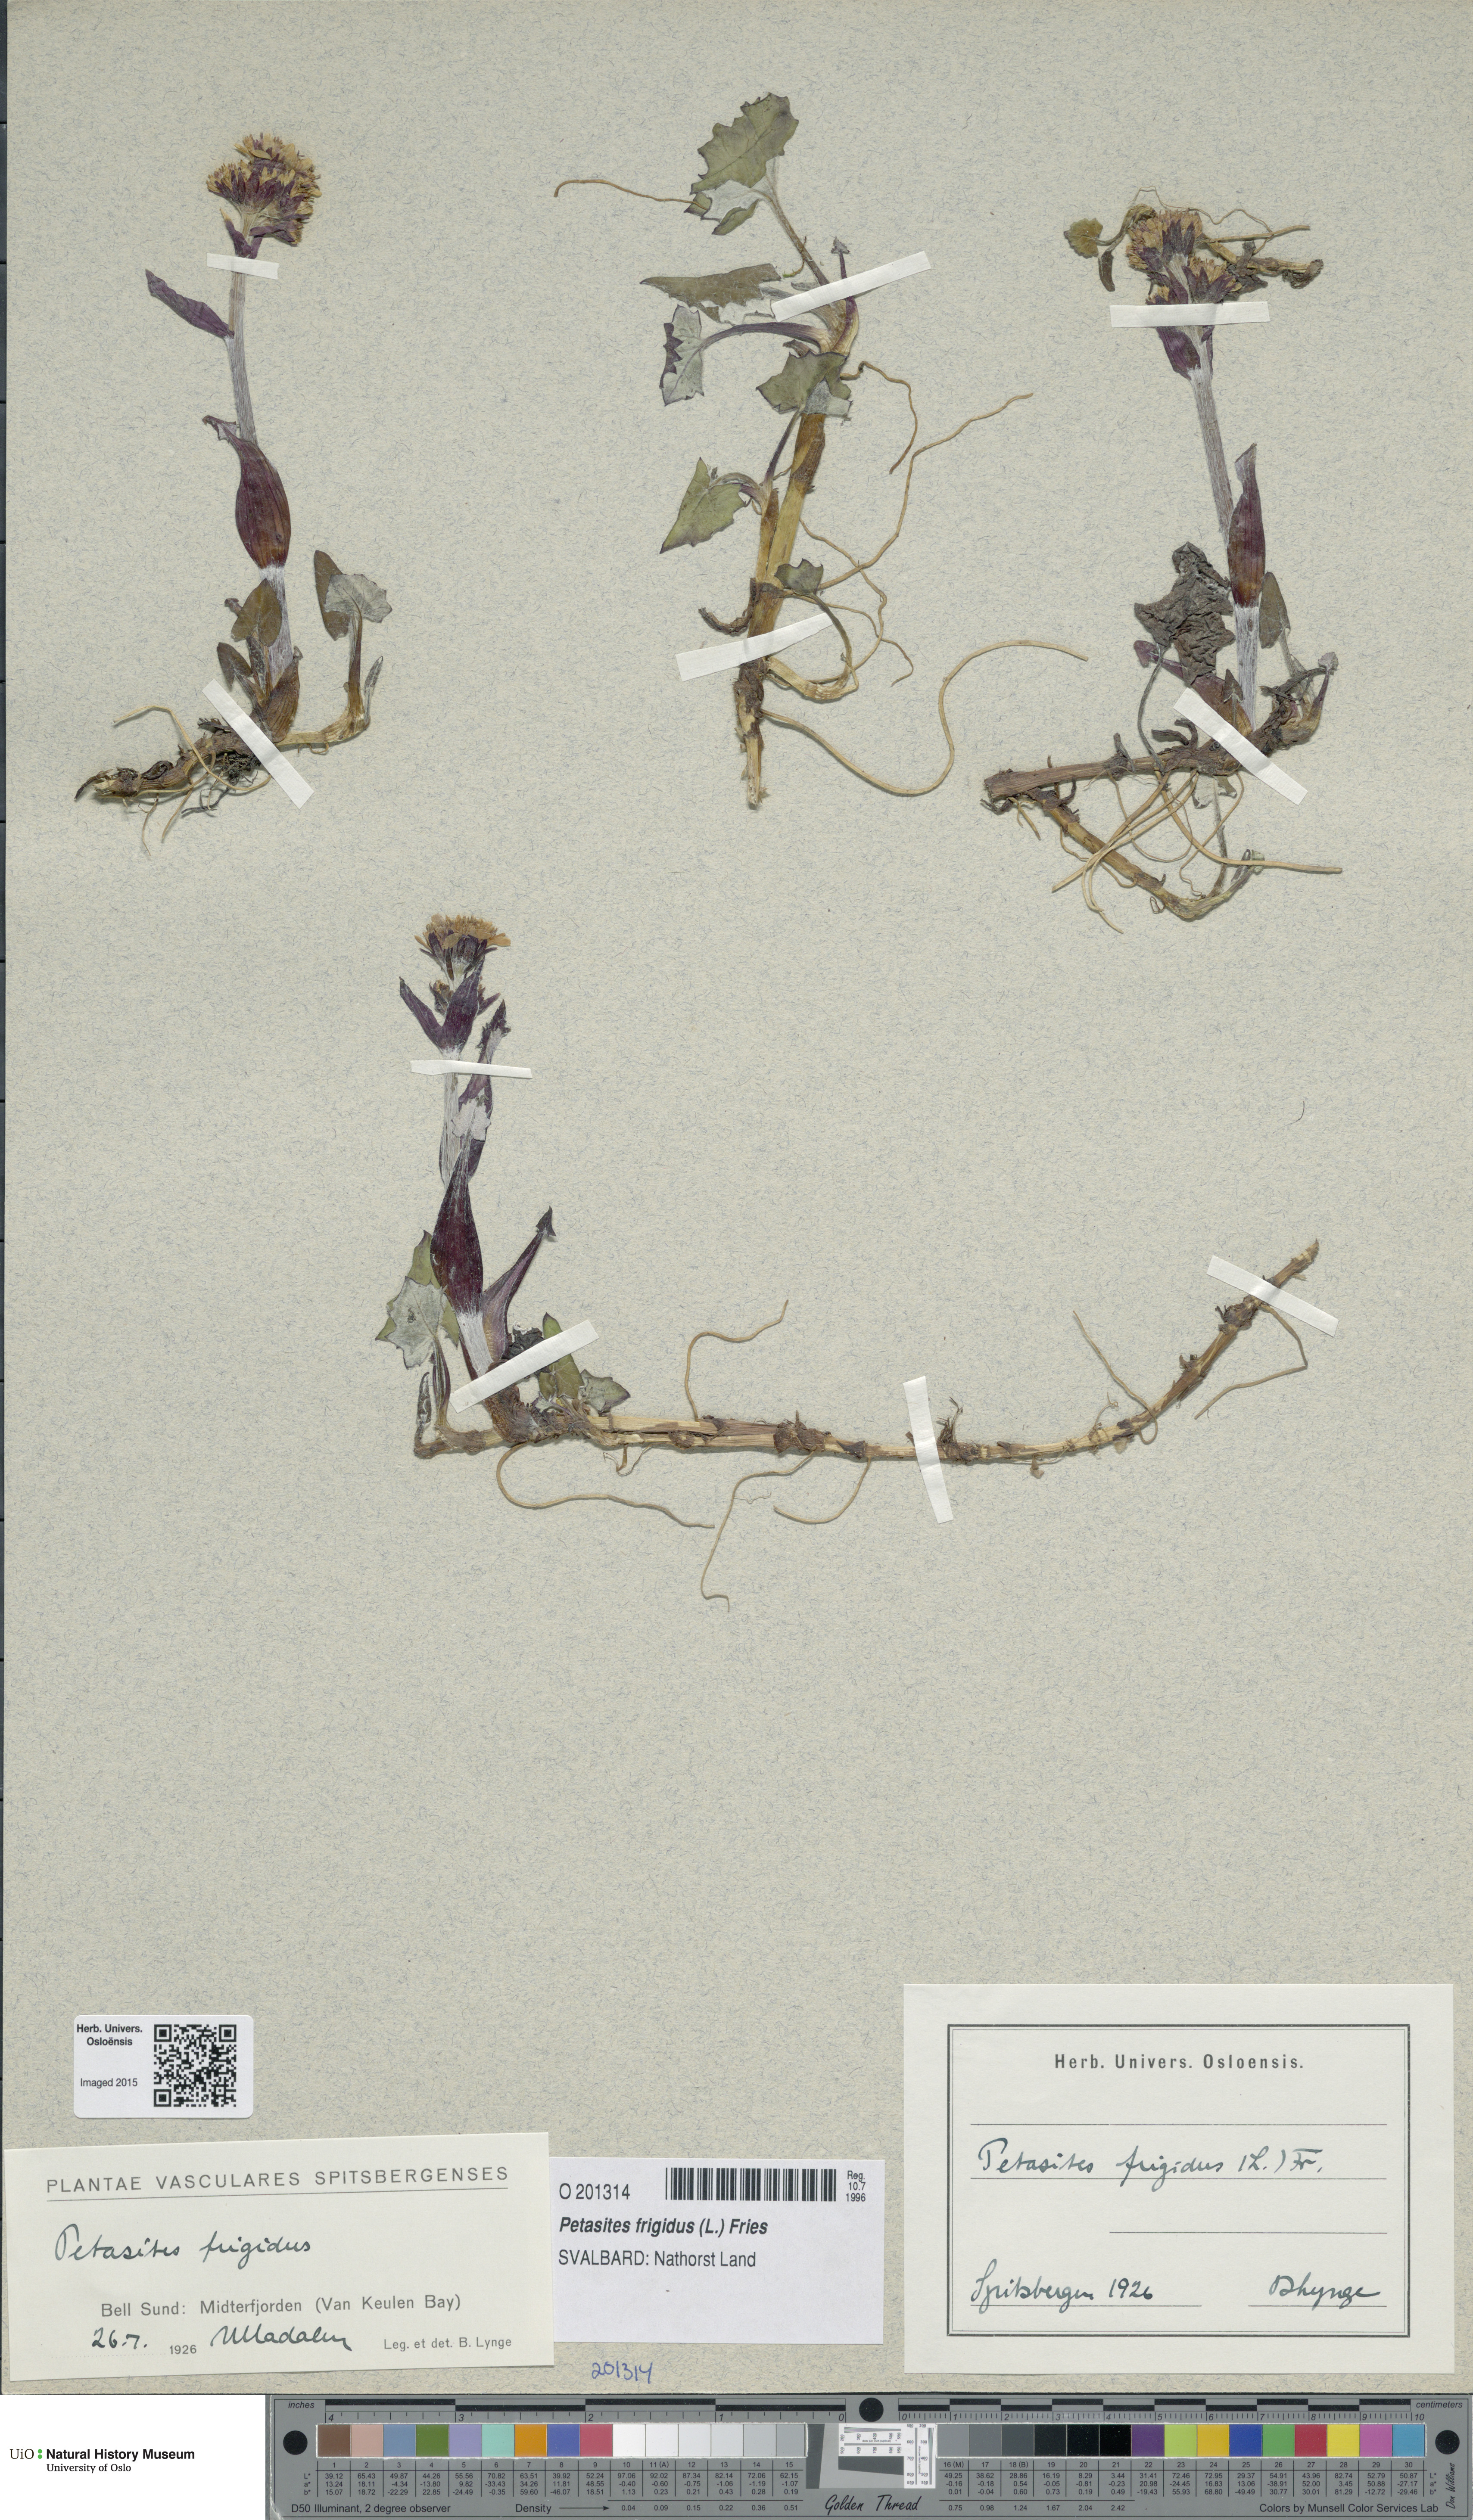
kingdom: Plantae
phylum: Tracheophyta
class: Magnoliopsida
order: Asterales
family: Asteraceae
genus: Petasites
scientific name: Petasites frigidus
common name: Arctic butterbur
